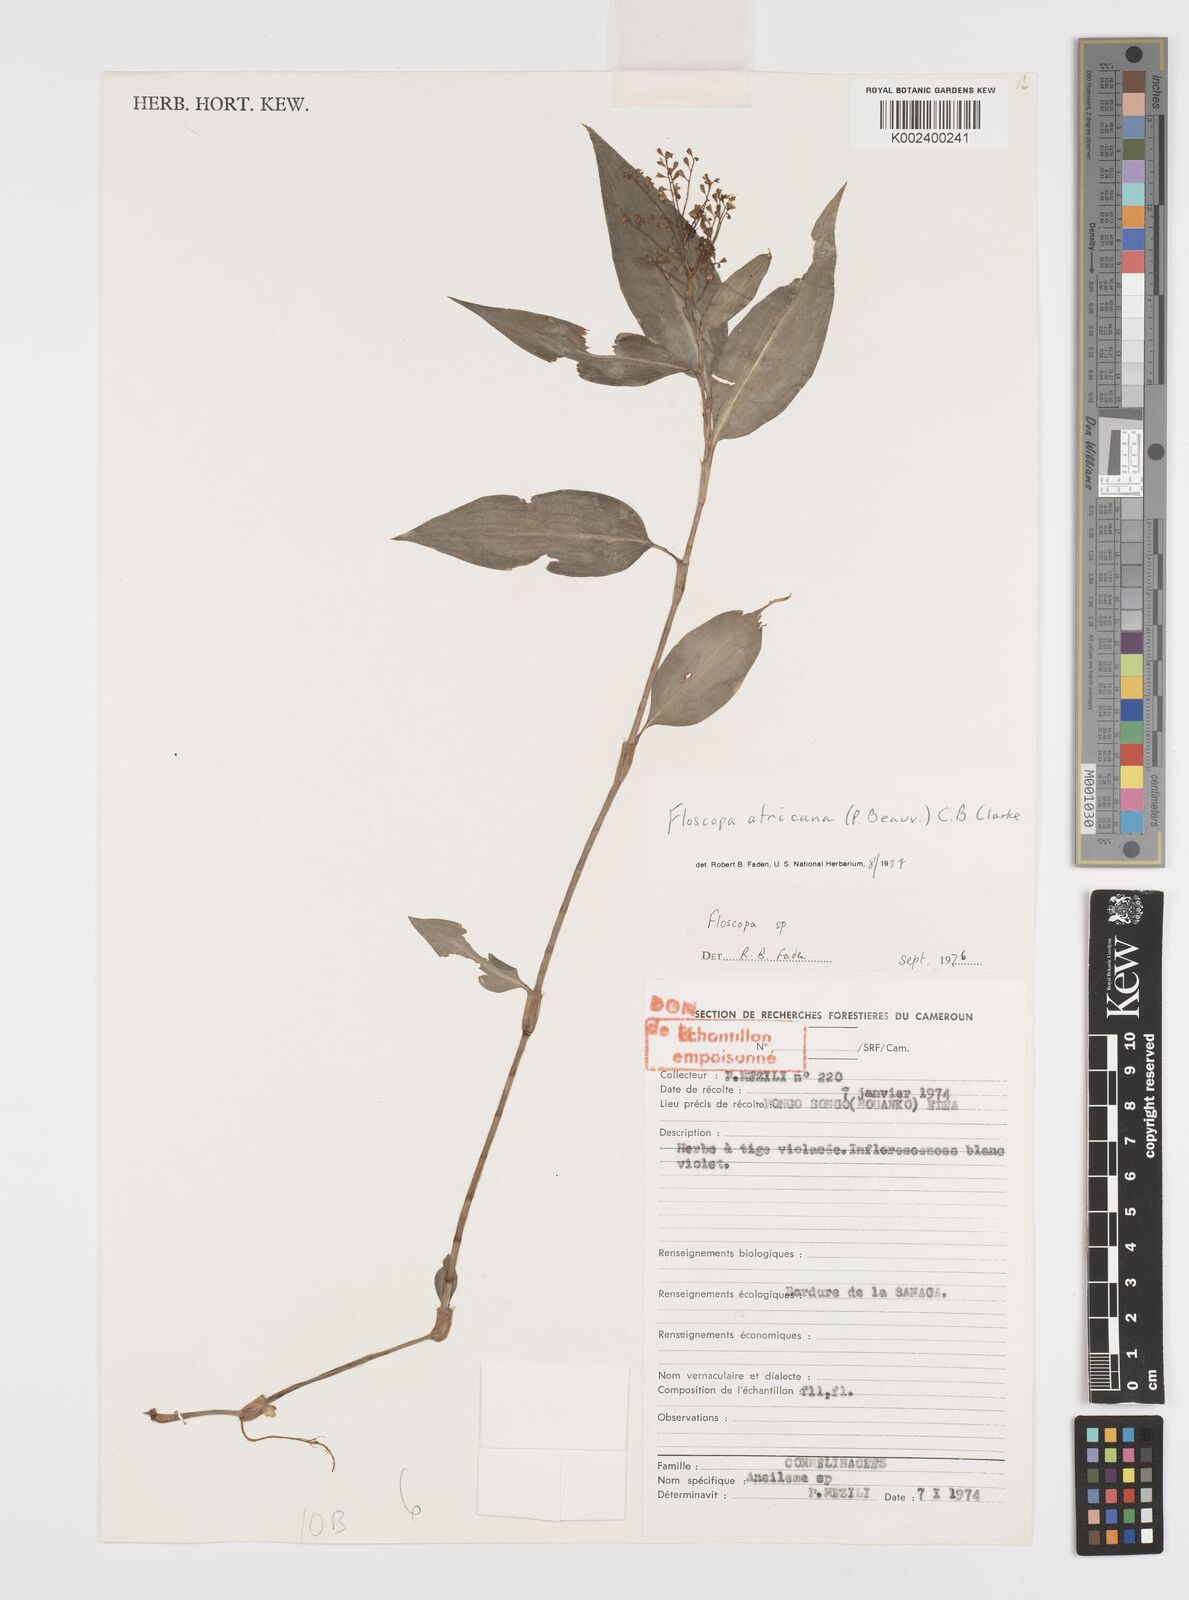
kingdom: Plantae
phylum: Tracheophyta
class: Liliopsida
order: Commelinales
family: Commelinaceae
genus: Floscopa
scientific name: Floscopa africana
